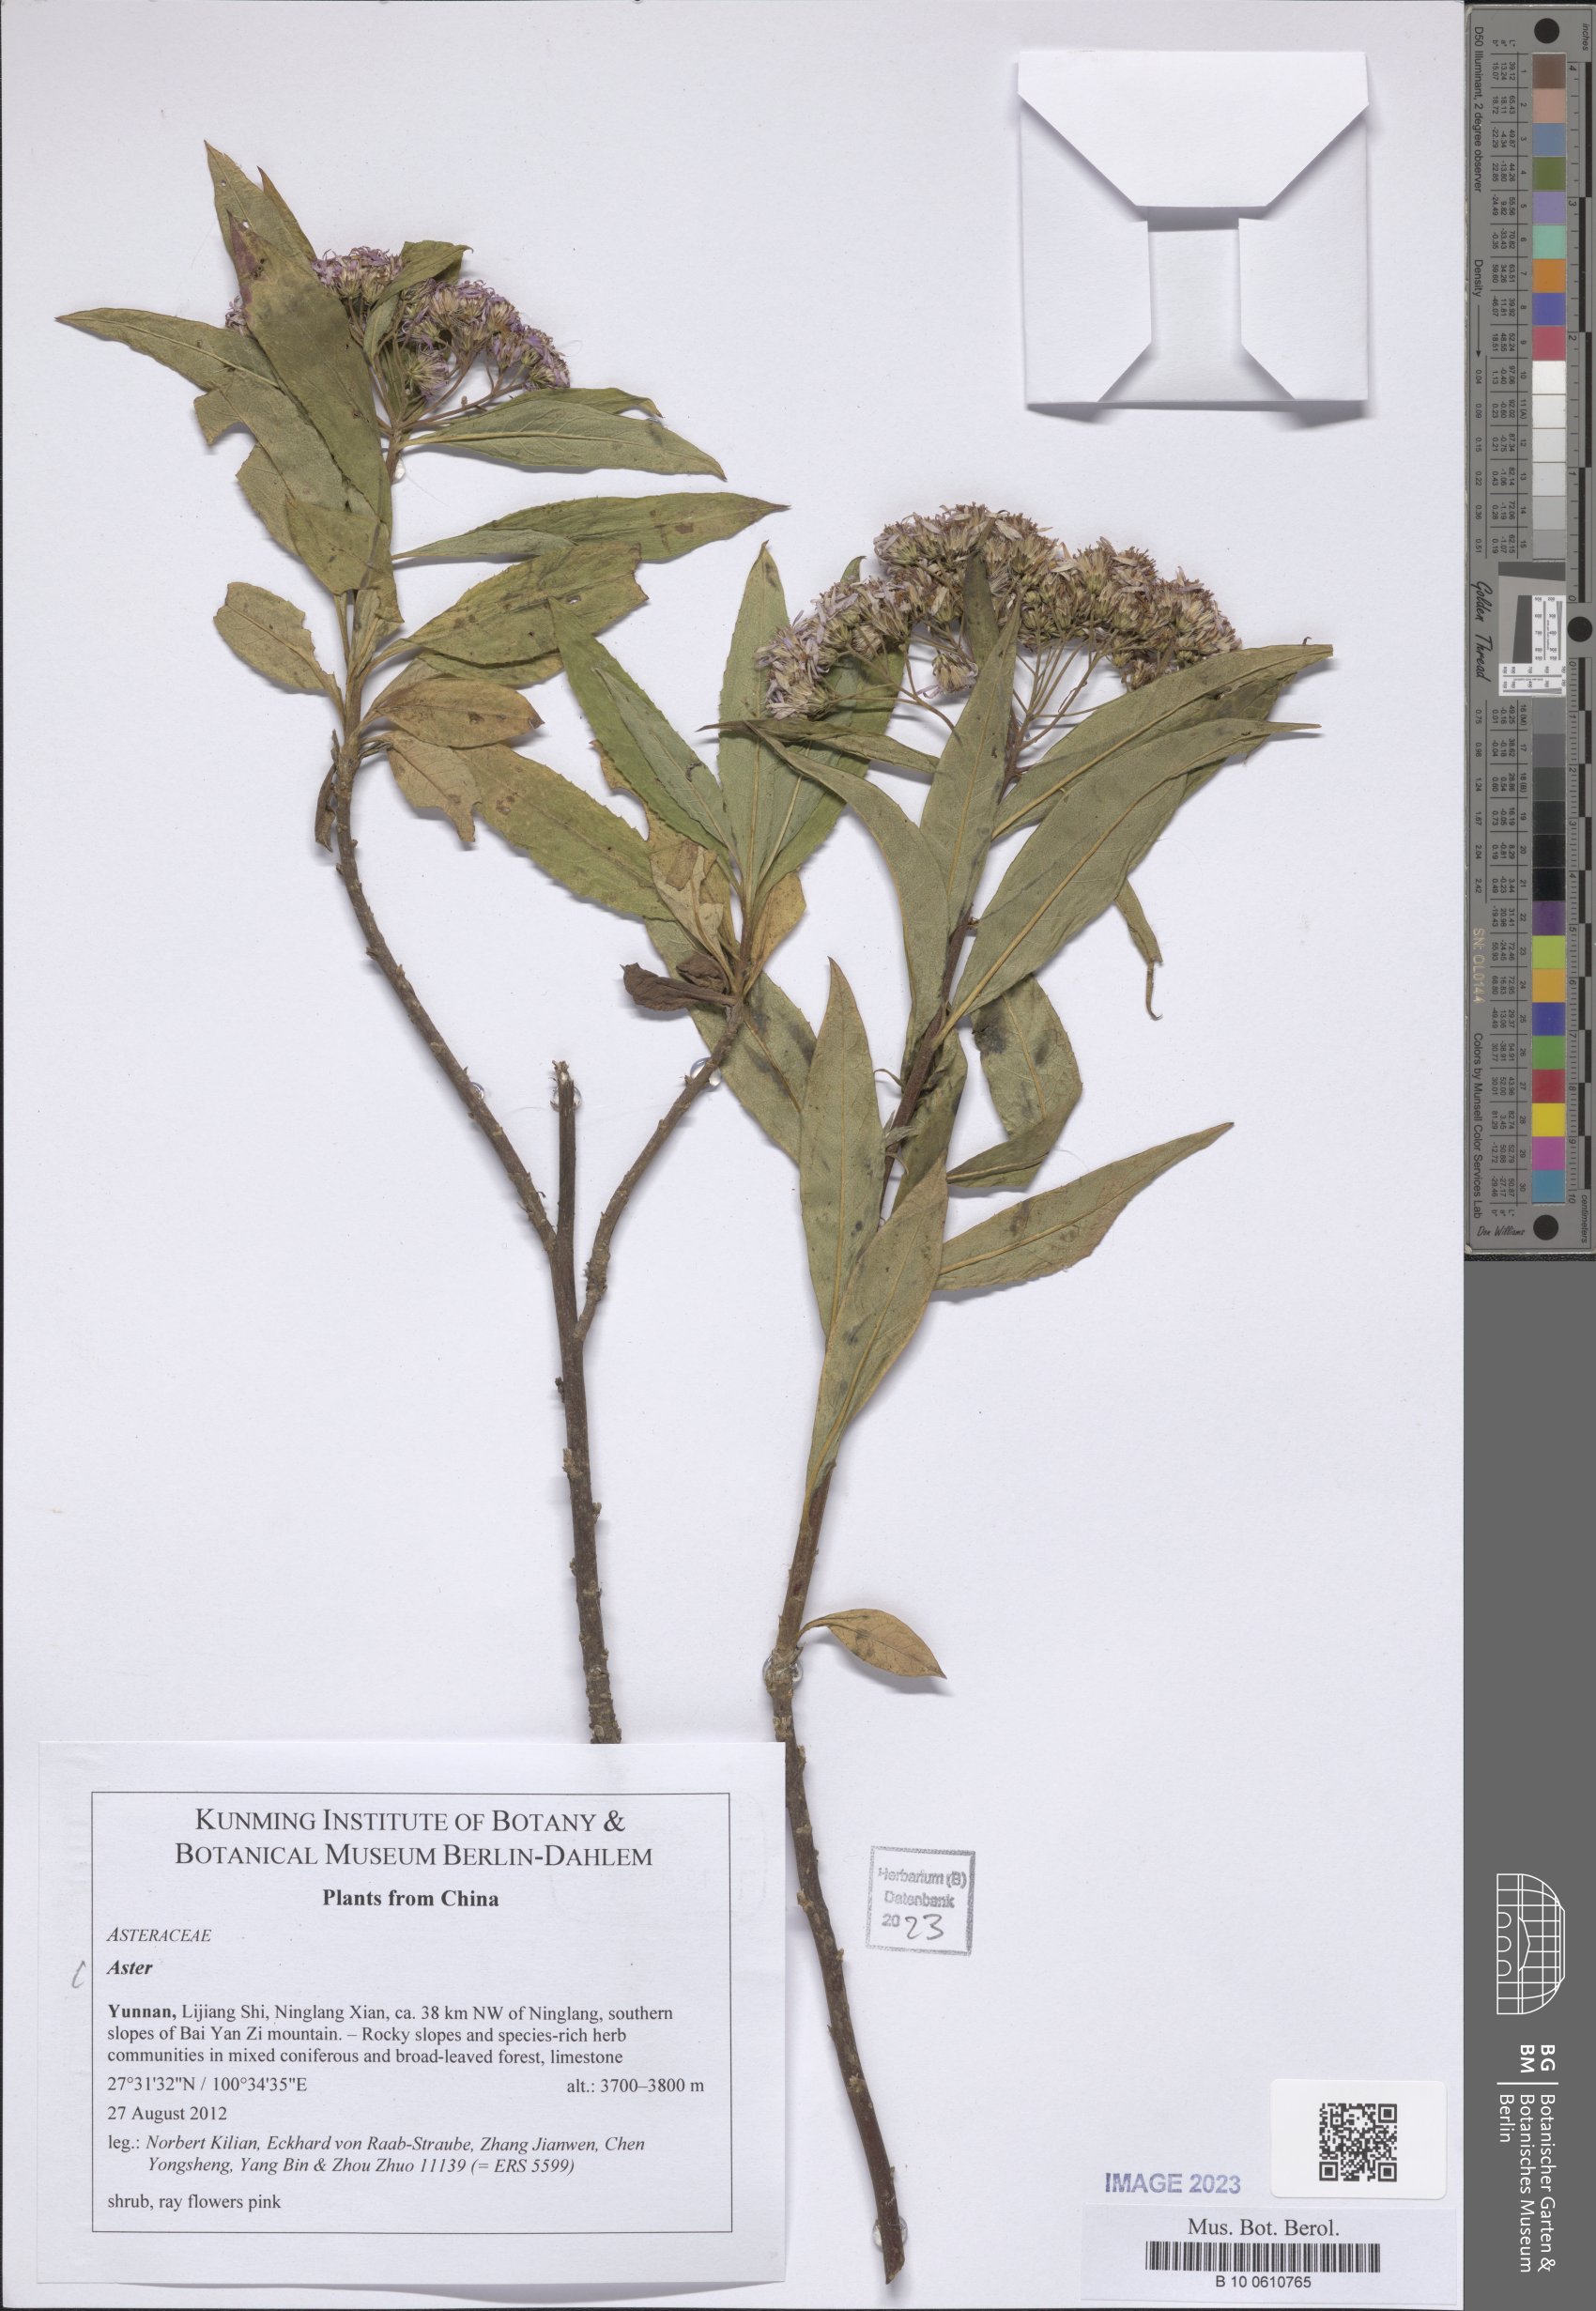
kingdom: Plantae
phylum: Tracheophyta
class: Magnoliopsida
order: Asterales
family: Asteraceae
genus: Aster
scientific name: Aster
